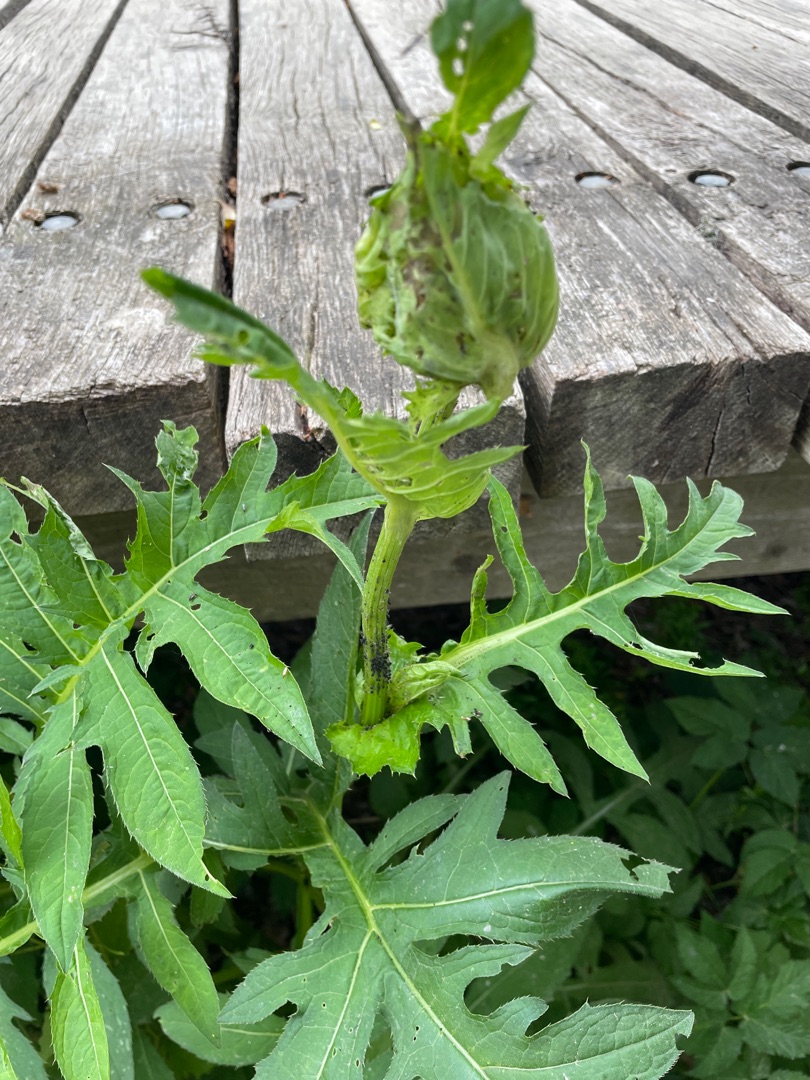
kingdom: Plantae
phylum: Tracheophyta
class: Magnoliopsida
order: Asterales
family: Asteraceae
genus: Cirsium
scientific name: Cirsium oleraceum
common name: Kål-tidsel
